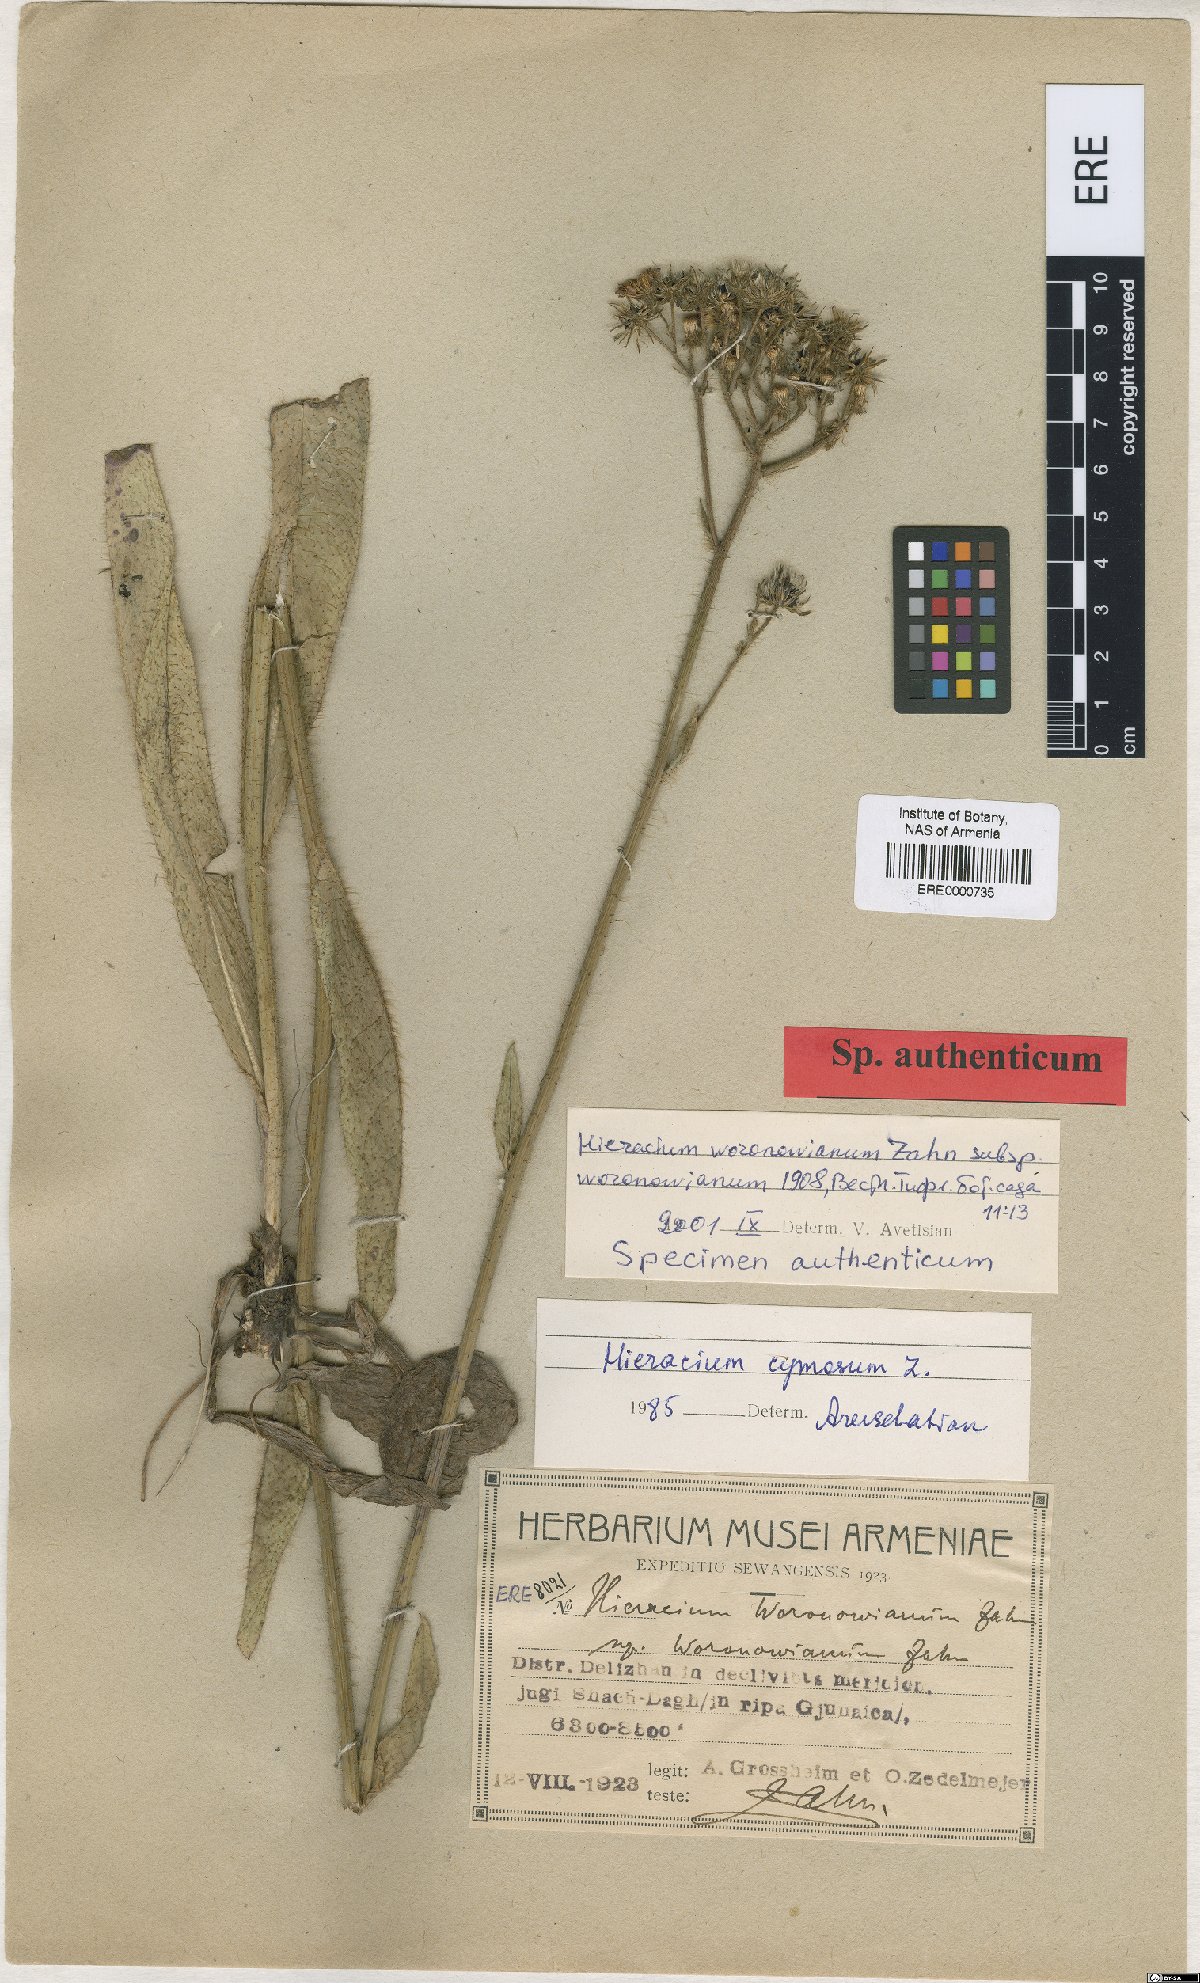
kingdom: Plantae
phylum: Tracheophyta
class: Magnoliopsida
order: Asterales
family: Asteraceae
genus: Pilosella
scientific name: Pilosella woronowiana
